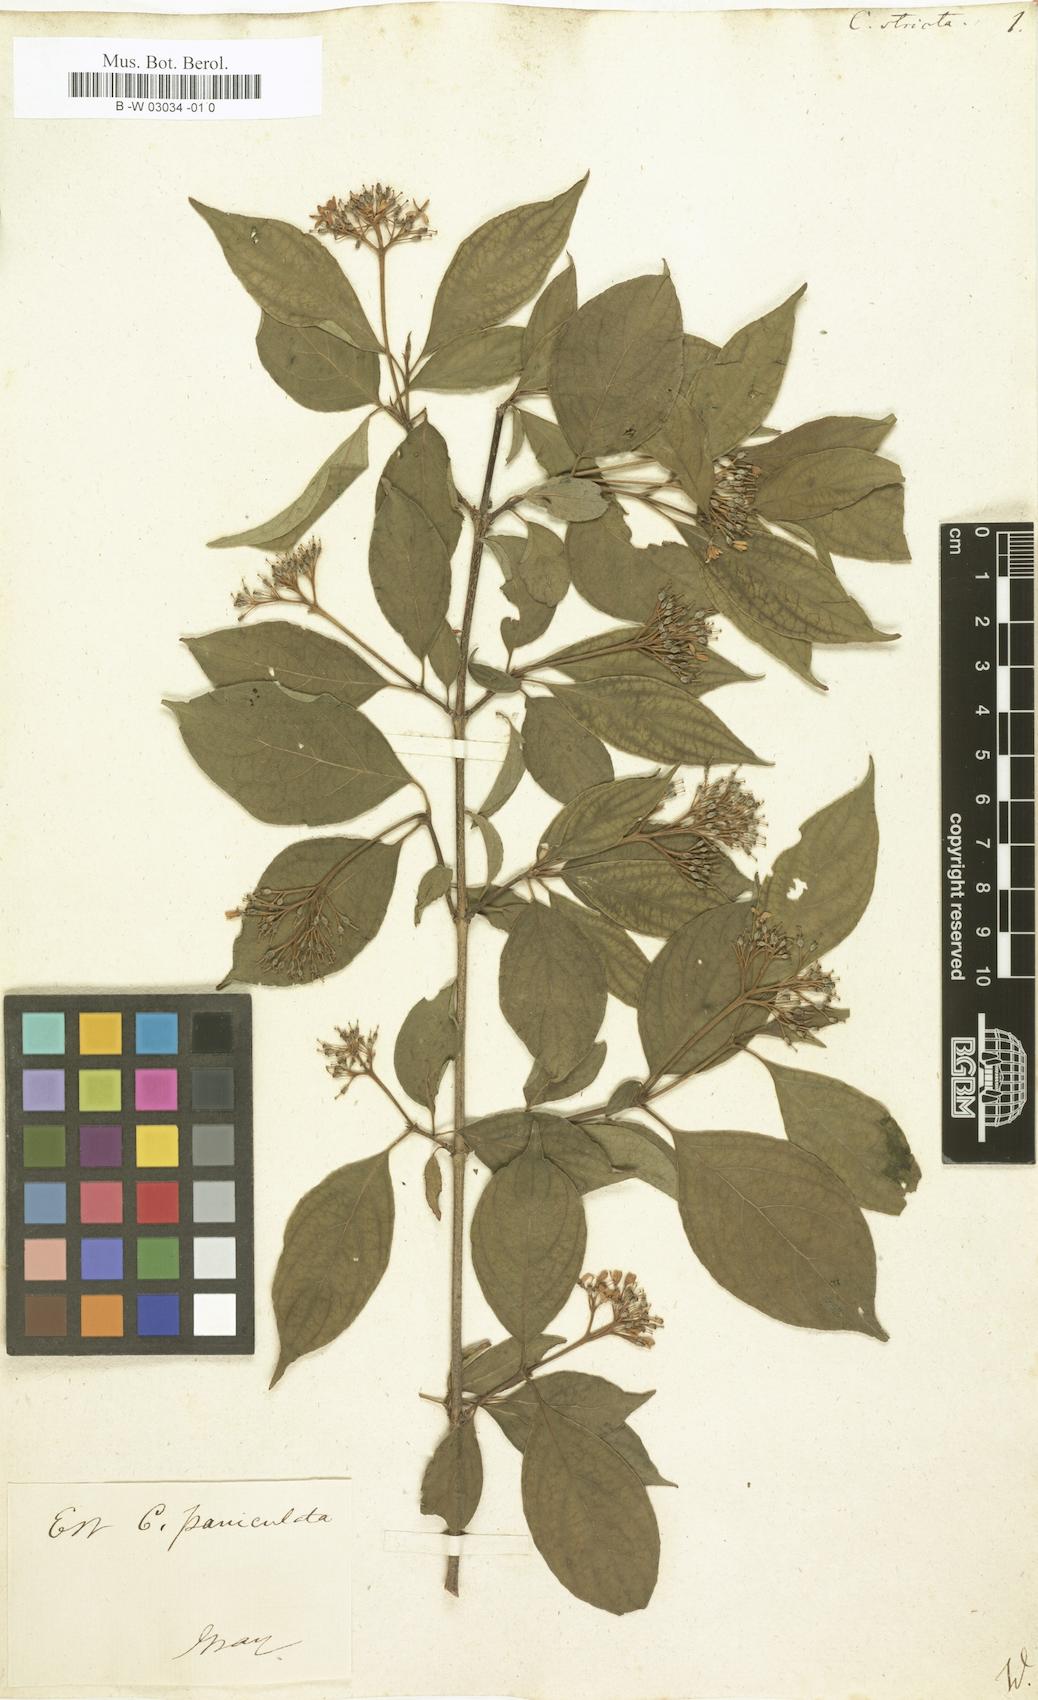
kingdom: Plantae
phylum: Tracheophyta
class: Magnoliopsida
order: Cornales
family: Cornaceae
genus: Cornus
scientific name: Cornus drummondii
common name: Rough-leaf dogwood
